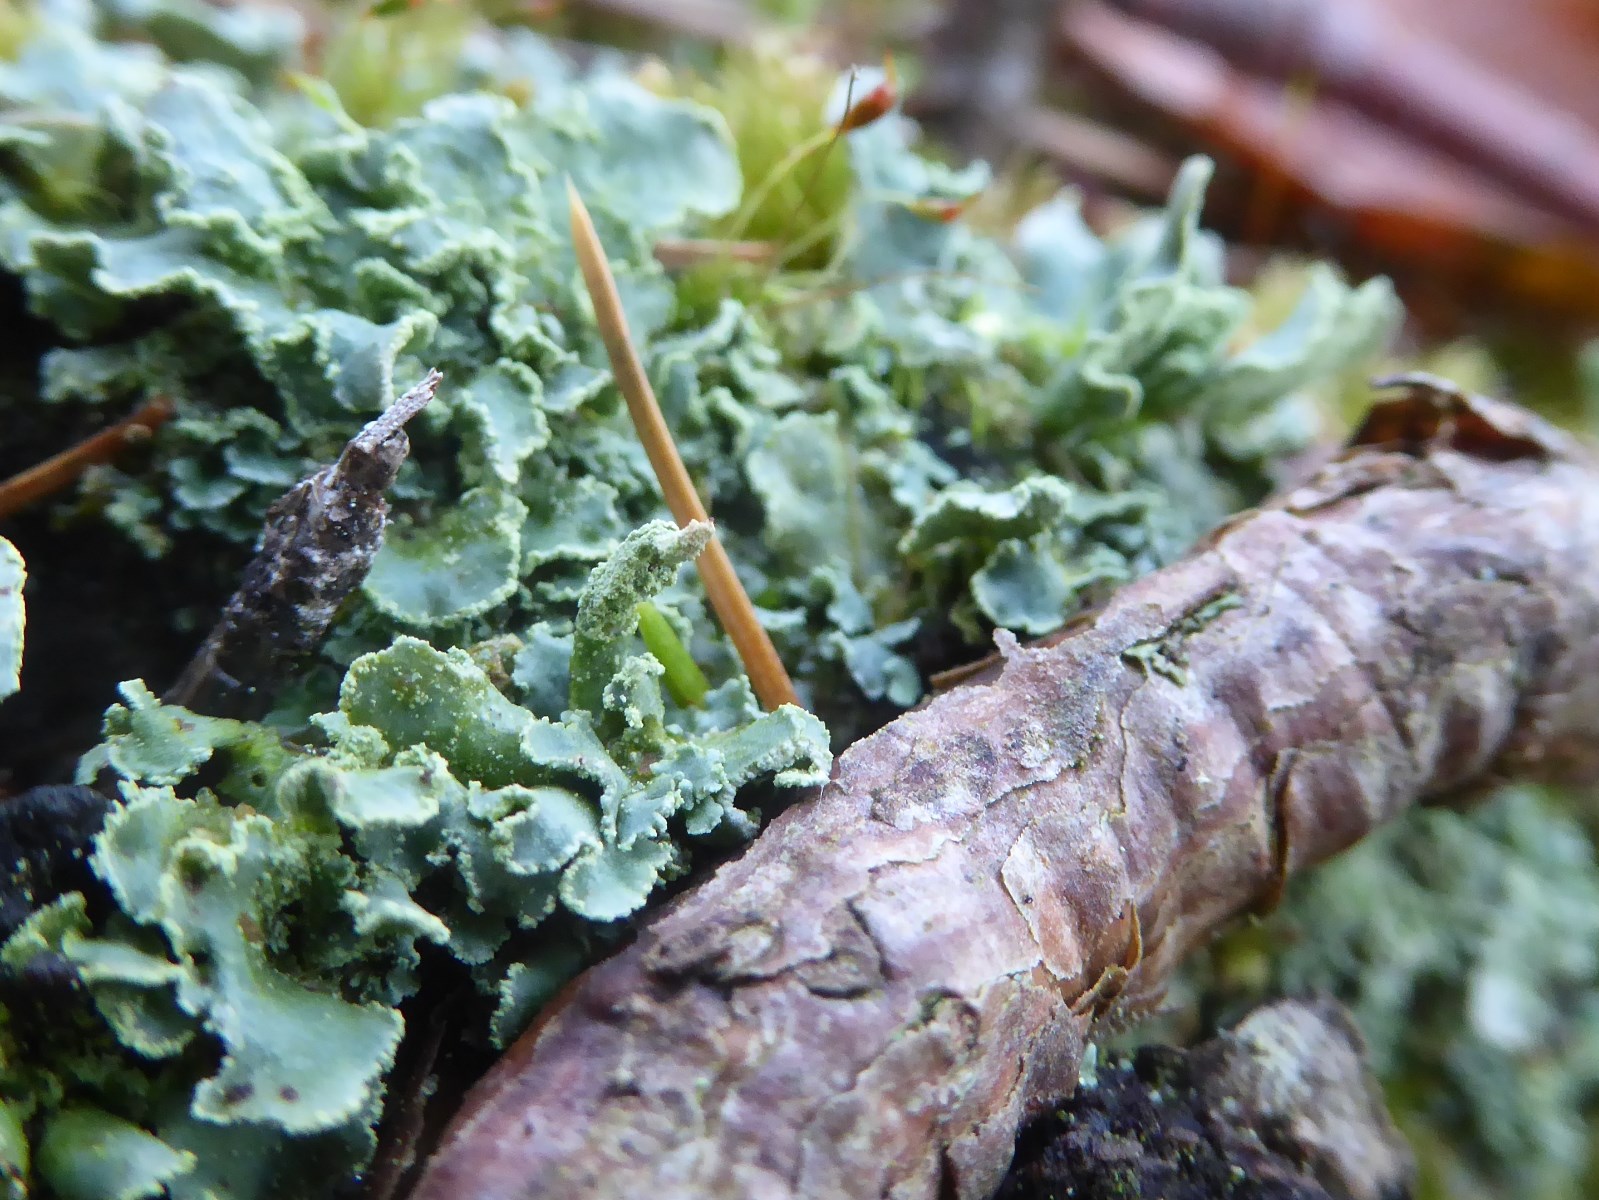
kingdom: Fungi
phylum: Ascomycota
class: Lecanoromycetes
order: Lecanorales
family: Cladoniaceae
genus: Cladonia
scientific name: Cladonia digitata
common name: finger-bægerlav
